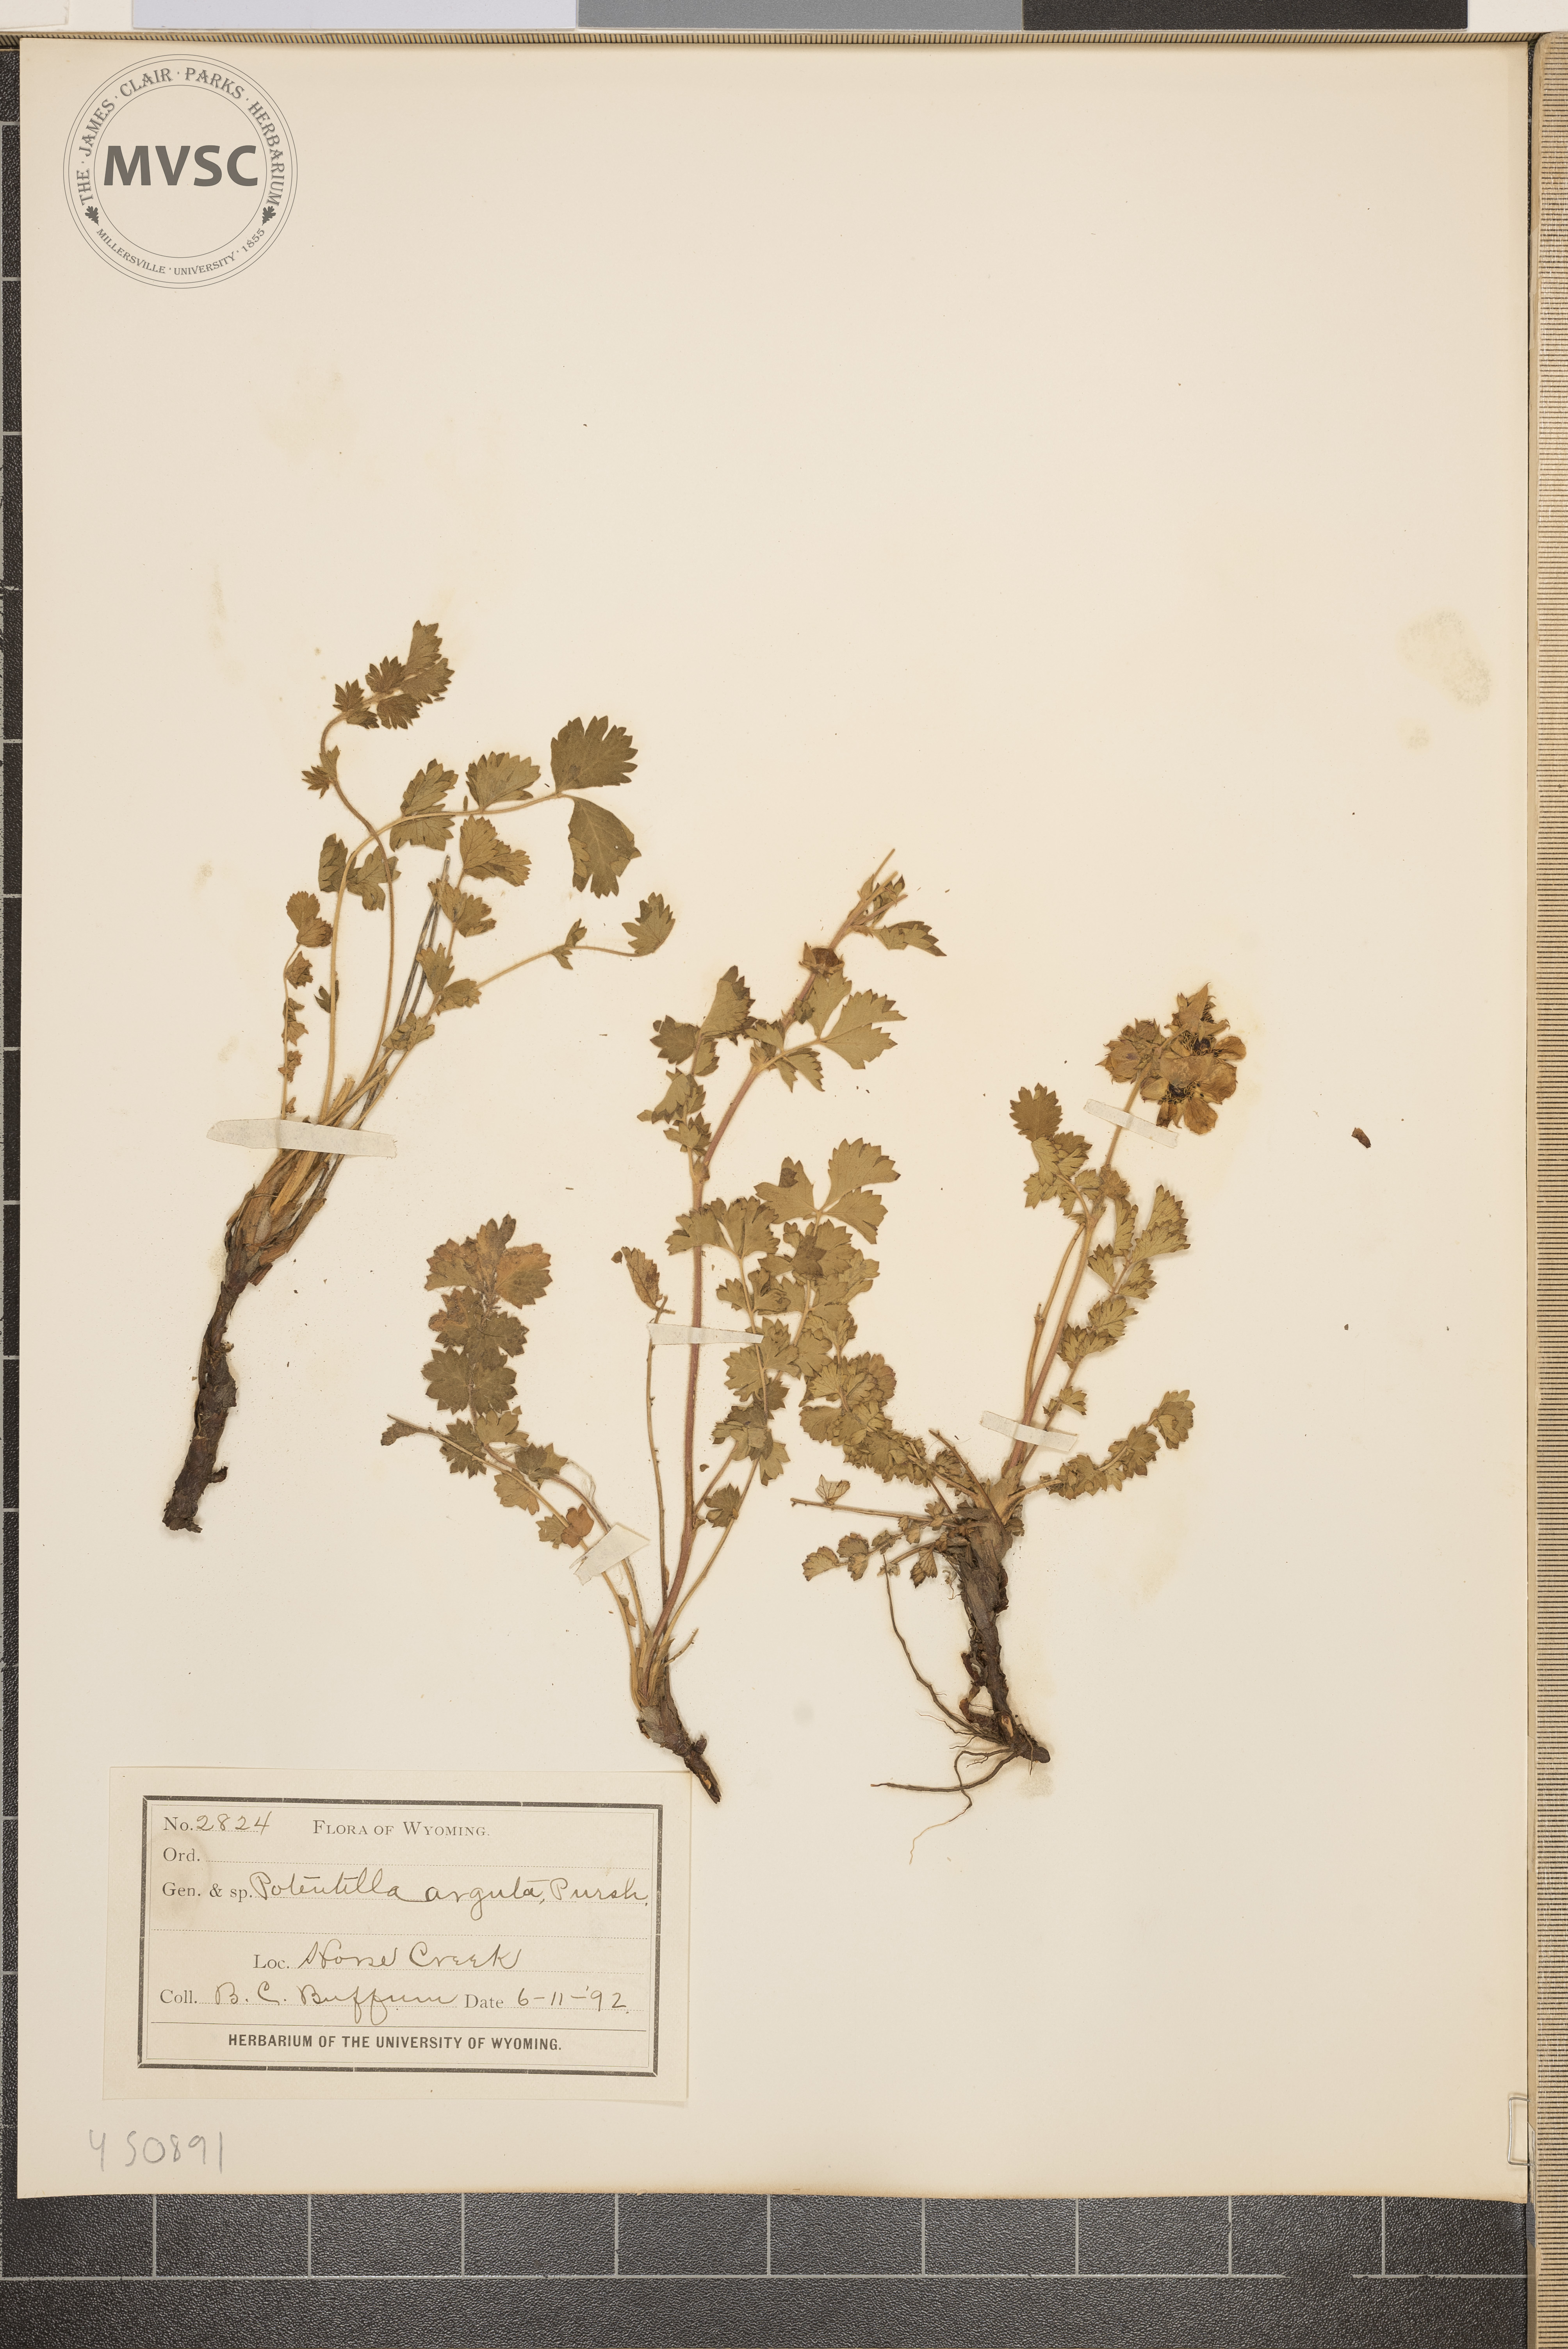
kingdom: Plantae
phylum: Tracheophyta
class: Magnoliopsida
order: Rosales
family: Rosaceae
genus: Drymocallis
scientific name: Drymocallis arguta
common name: Tall cinquefoil
